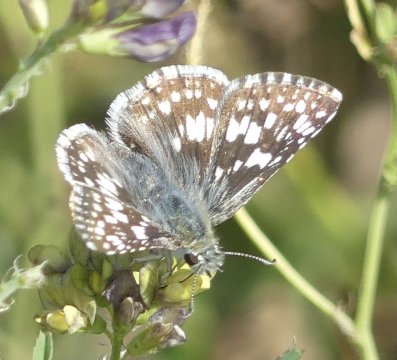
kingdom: Animalia
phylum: Arthropoda
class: Insecta
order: Lepidoptera
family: Hesperiidae
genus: Pyrgus
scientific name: Pyrgus communis
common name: Common Checkered-Skipper
